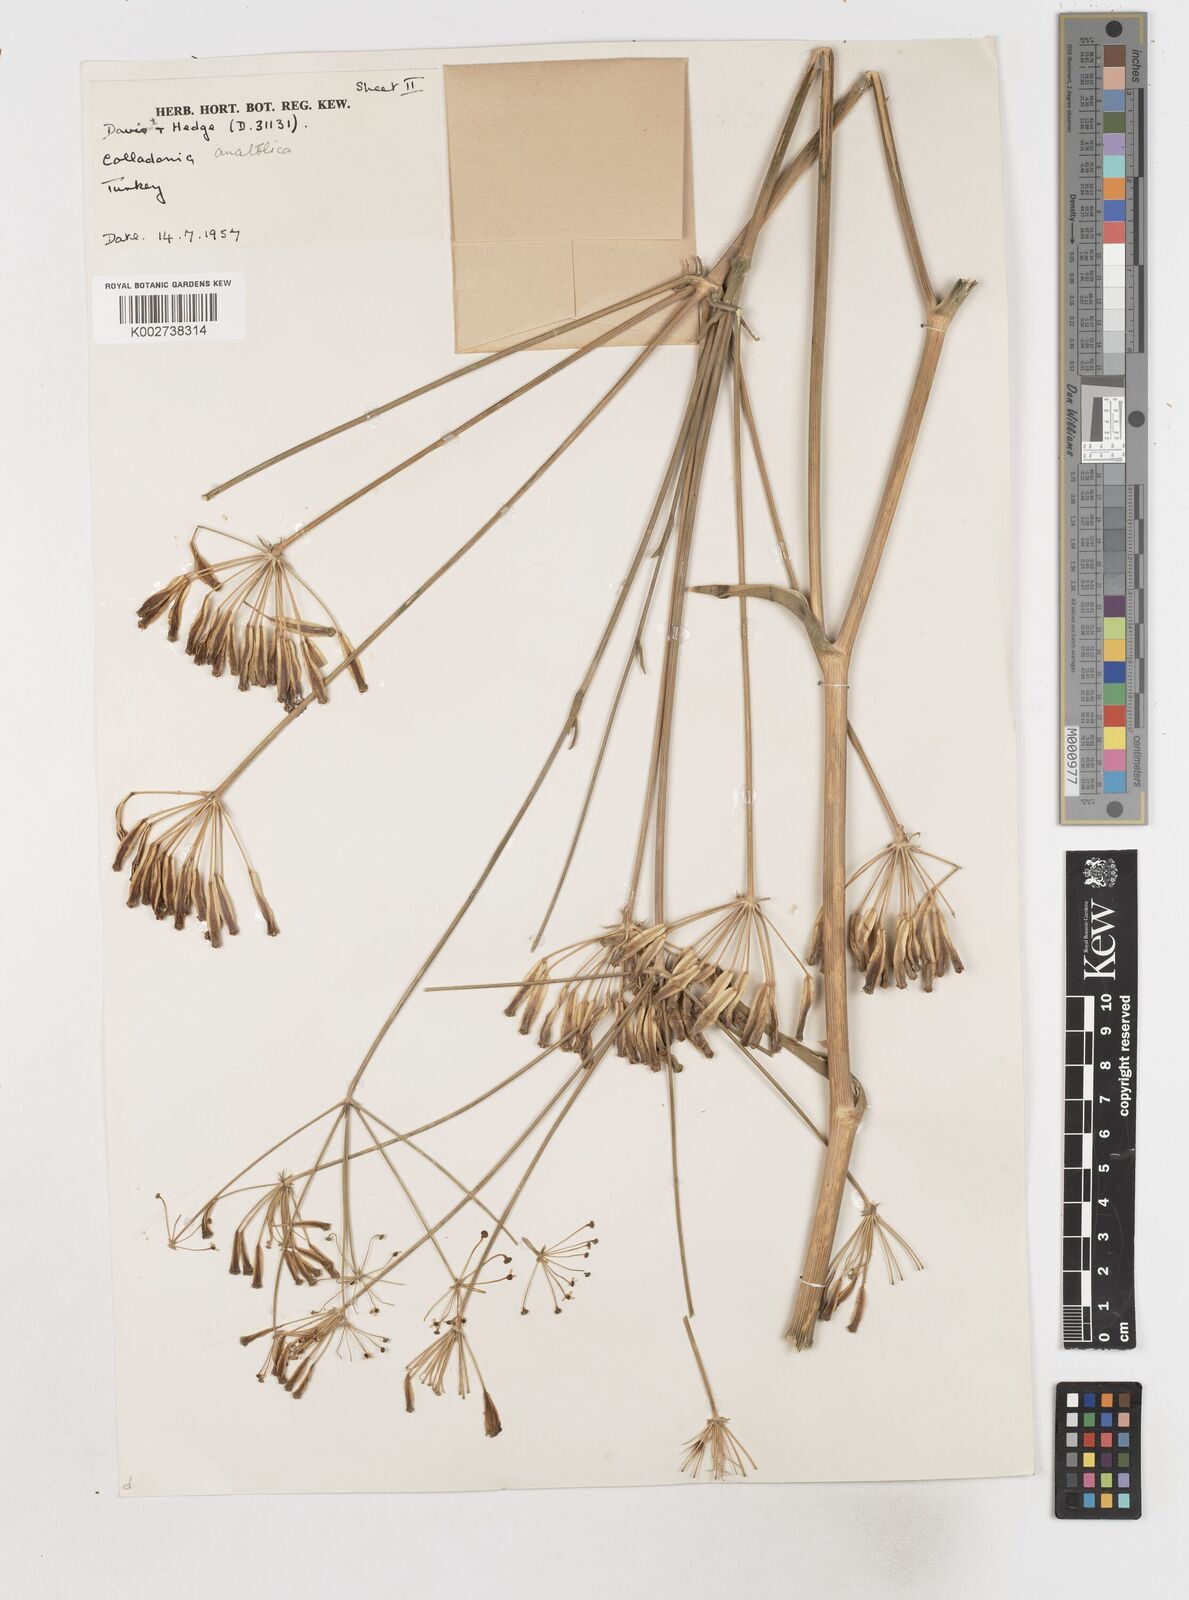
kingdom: Plantae
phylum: Tracheophyta
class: Magnoliopsida
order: Apiales
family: Apiaceae
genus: Heptaptera
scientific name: Heptaptera anatolica
